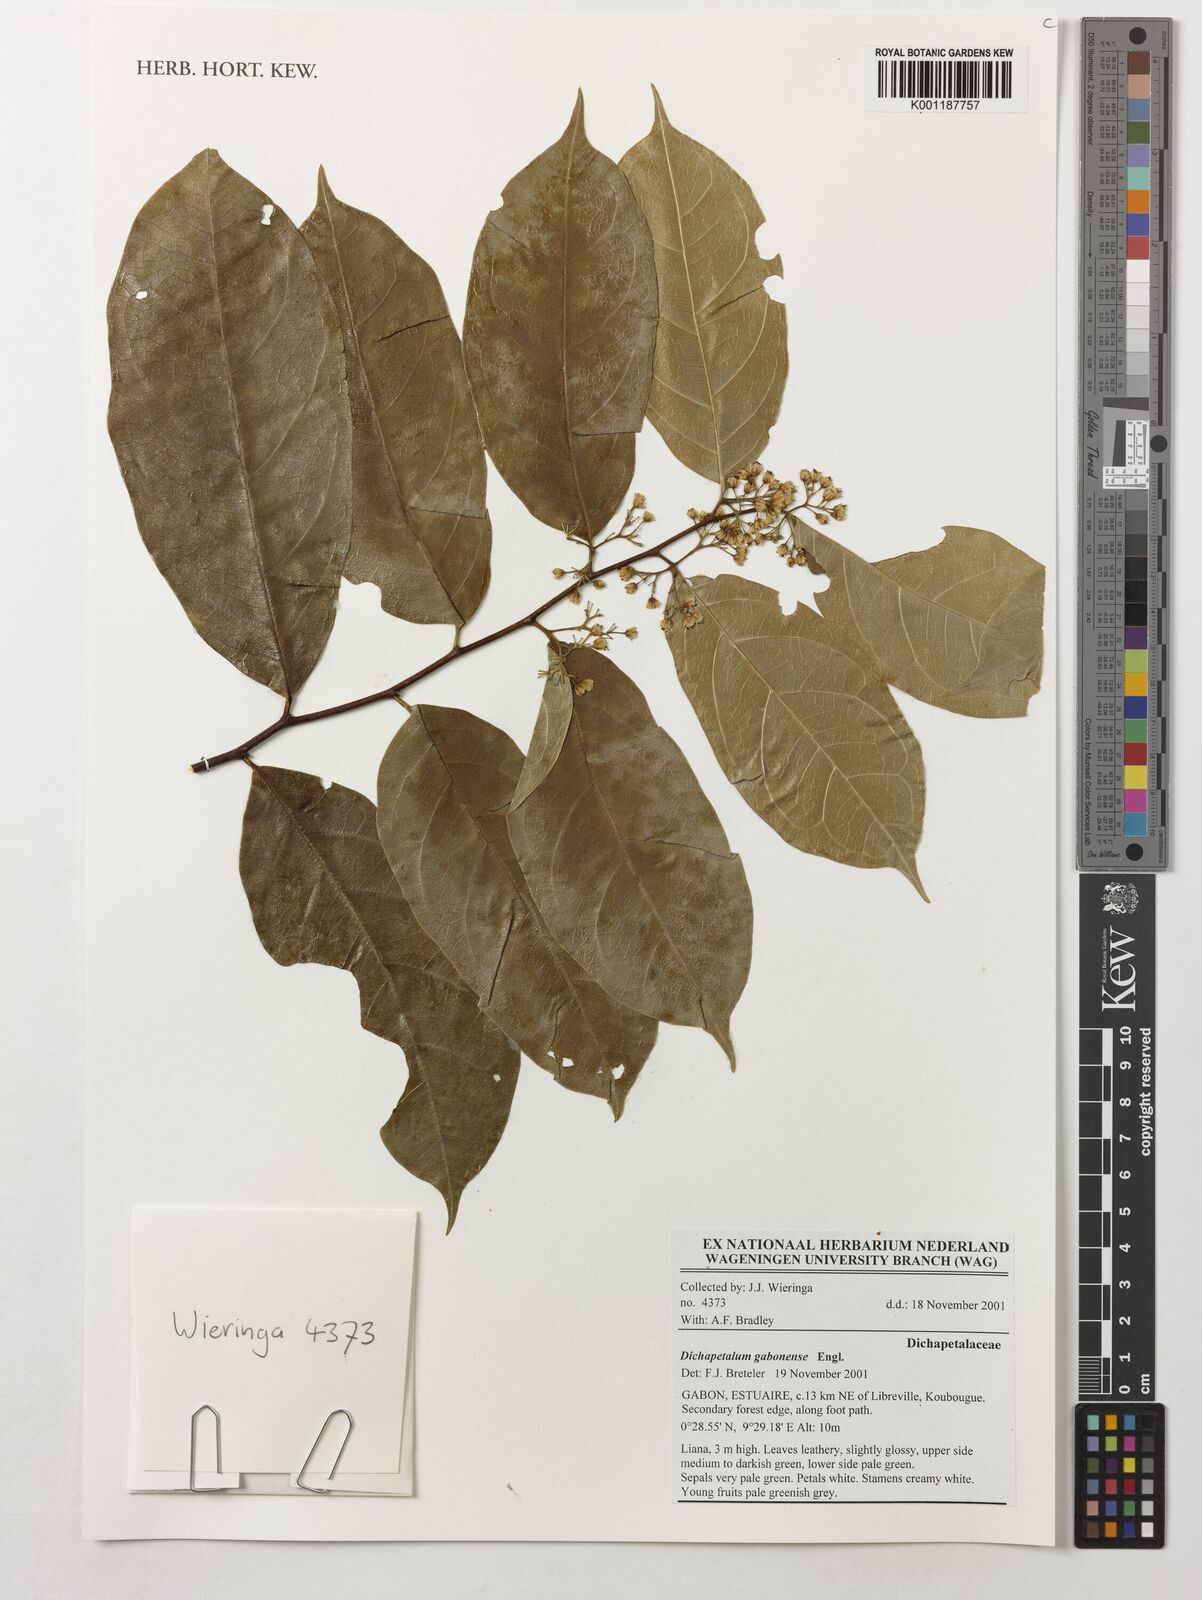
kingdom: Plantae
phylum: Tracheophyta
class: Magnoliopsida
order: Malpighiales
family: Dichapetalaceae
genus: Dichapetalum
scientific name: Dichapetalum gabonense
